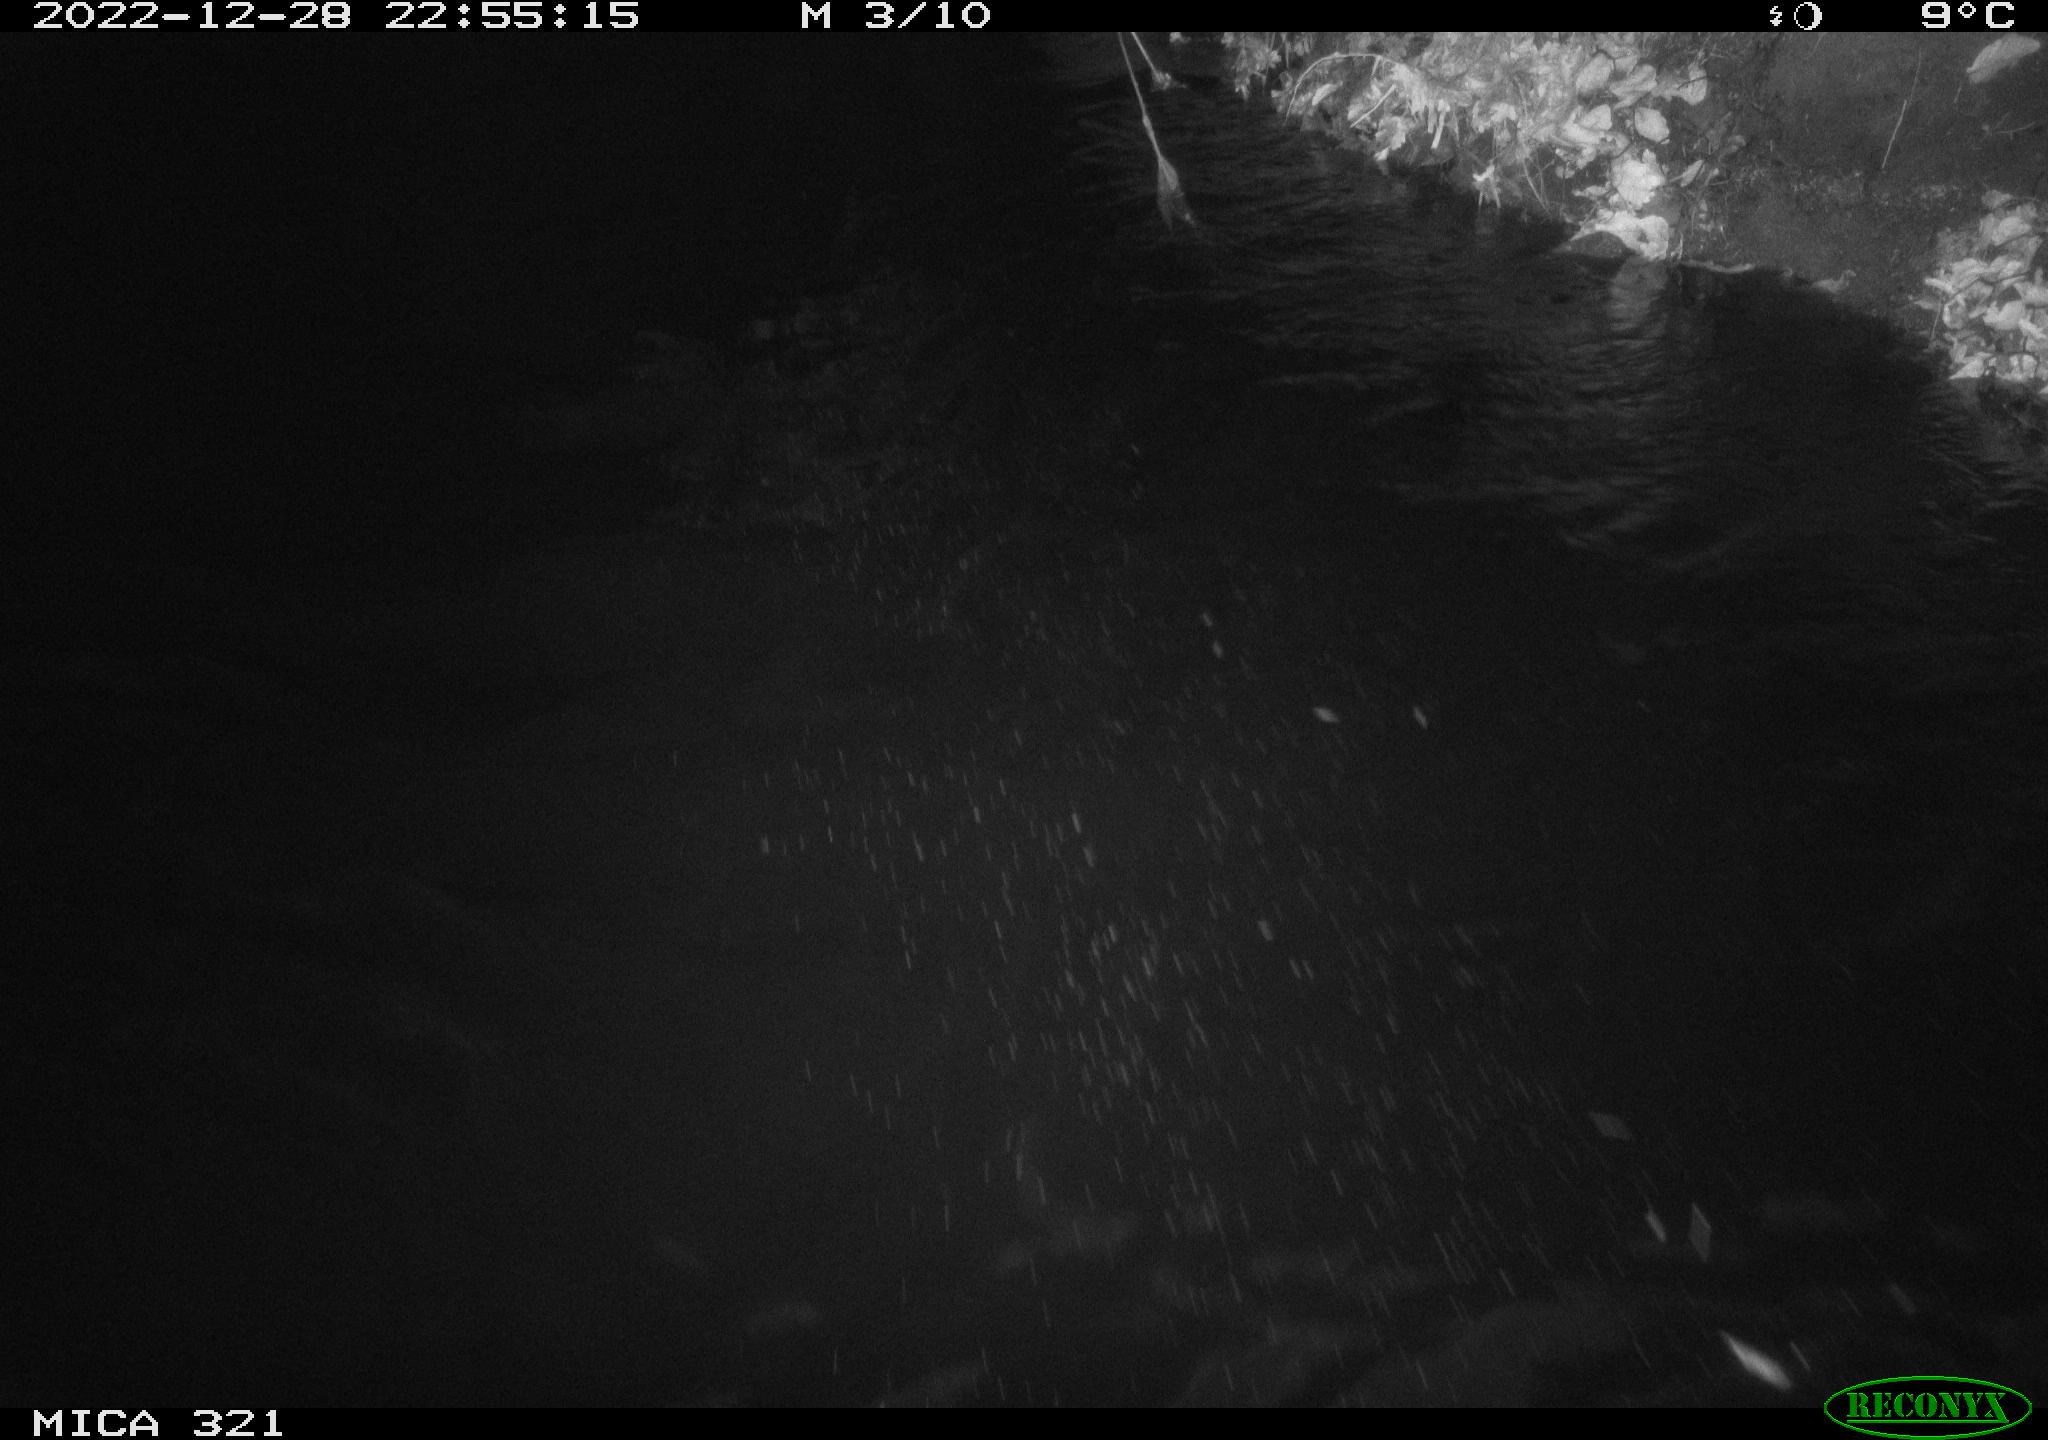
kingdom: Animalia
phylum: Chordata
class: Aves
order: Anseriformes
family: Anatidae
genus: Anas
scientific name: Anas
